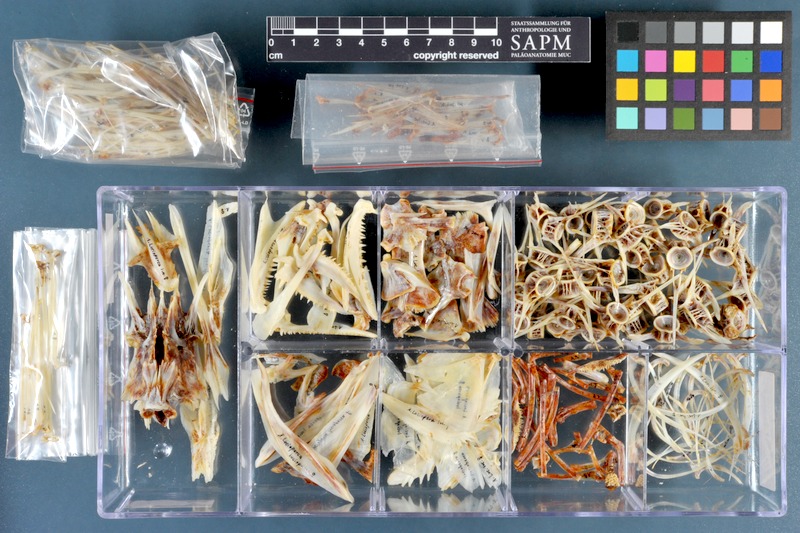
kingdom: Animalia
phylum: Chordata
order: Perciformes
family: Percidae
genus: Sander
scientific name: Sander lucioperca
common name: Pikeperch
